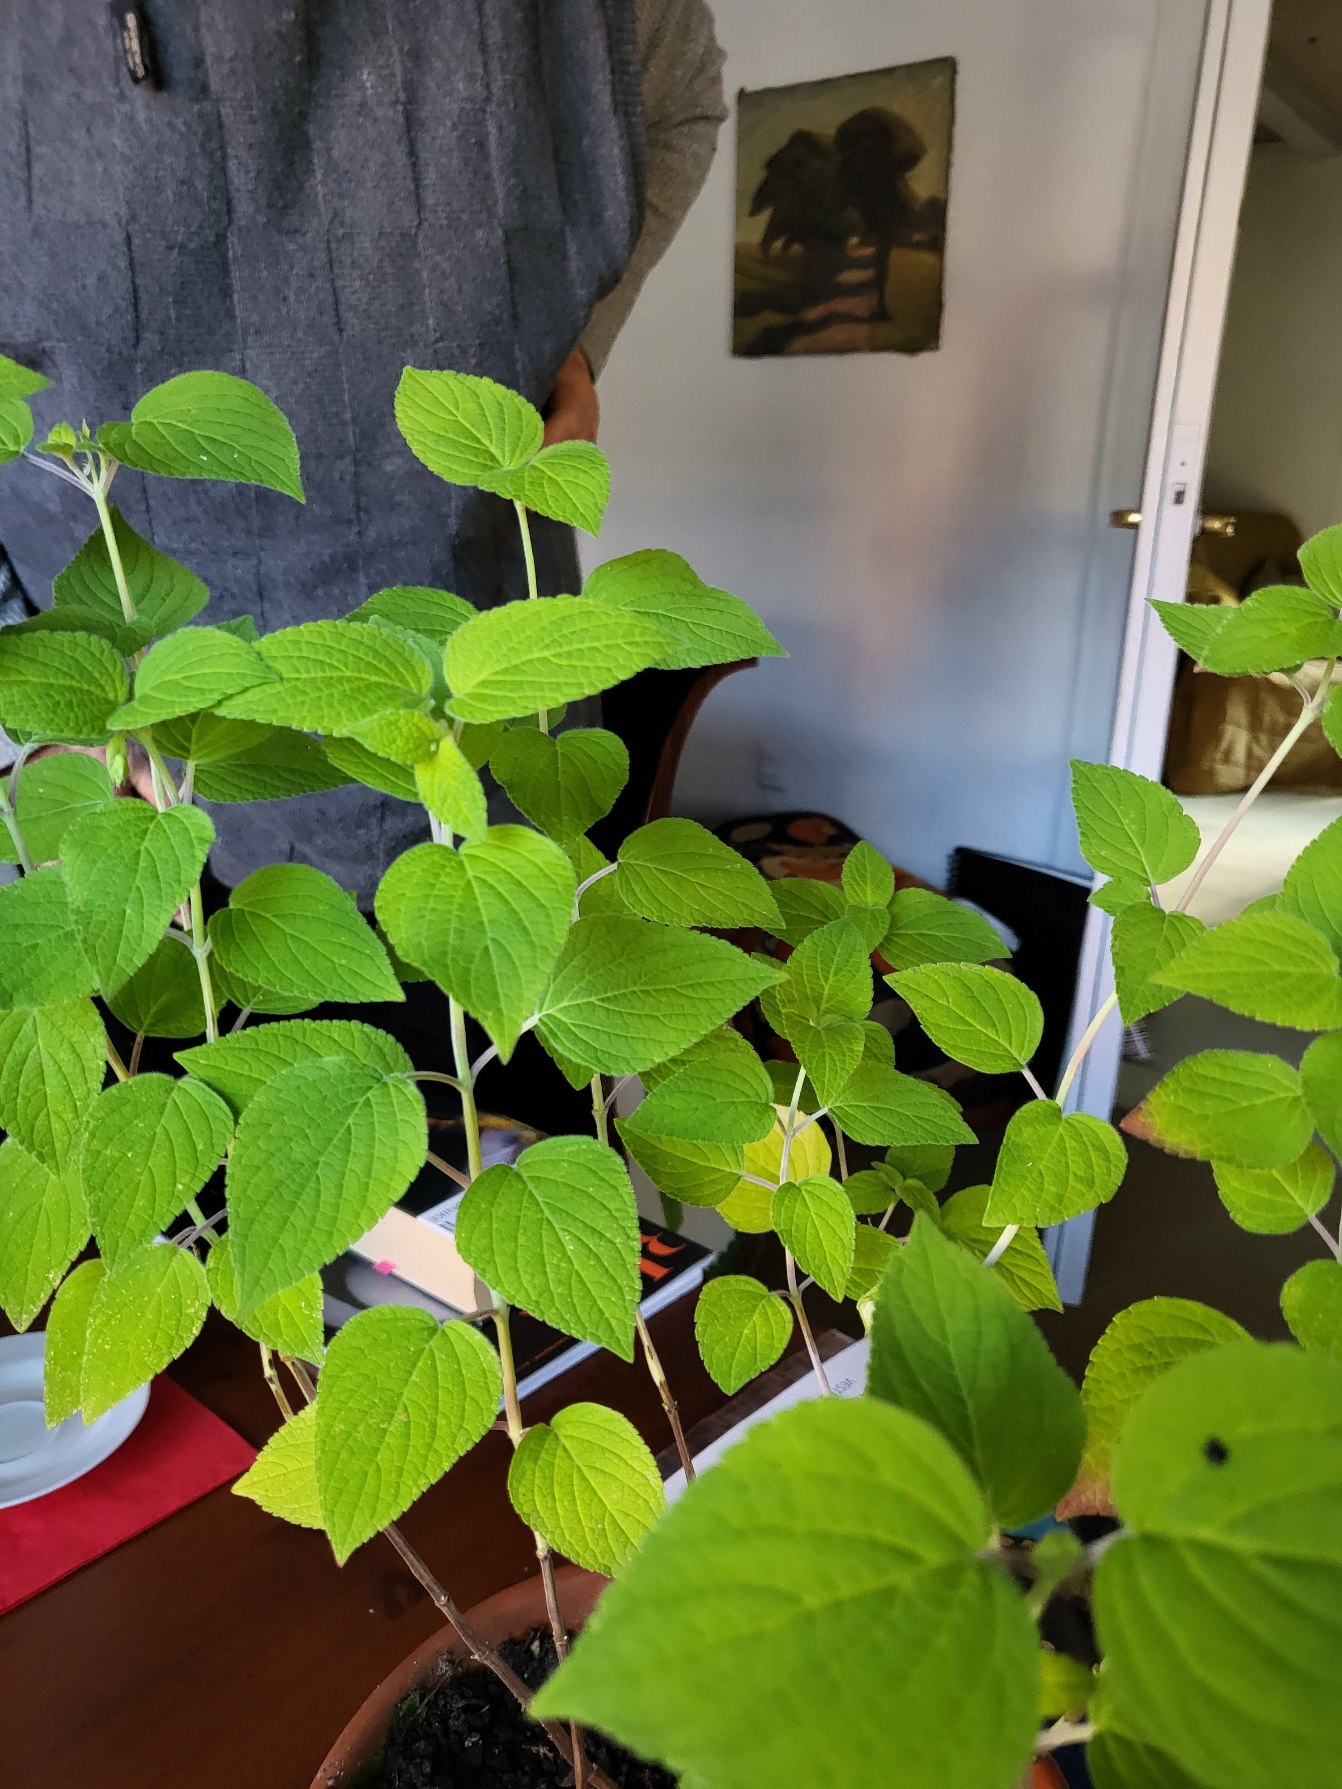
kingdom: Plantae
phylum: Tracheophyta
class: Magnoliopsida
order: Lamiales
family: Lamiaceae
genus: Salvia
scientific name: Salvia hispanica
